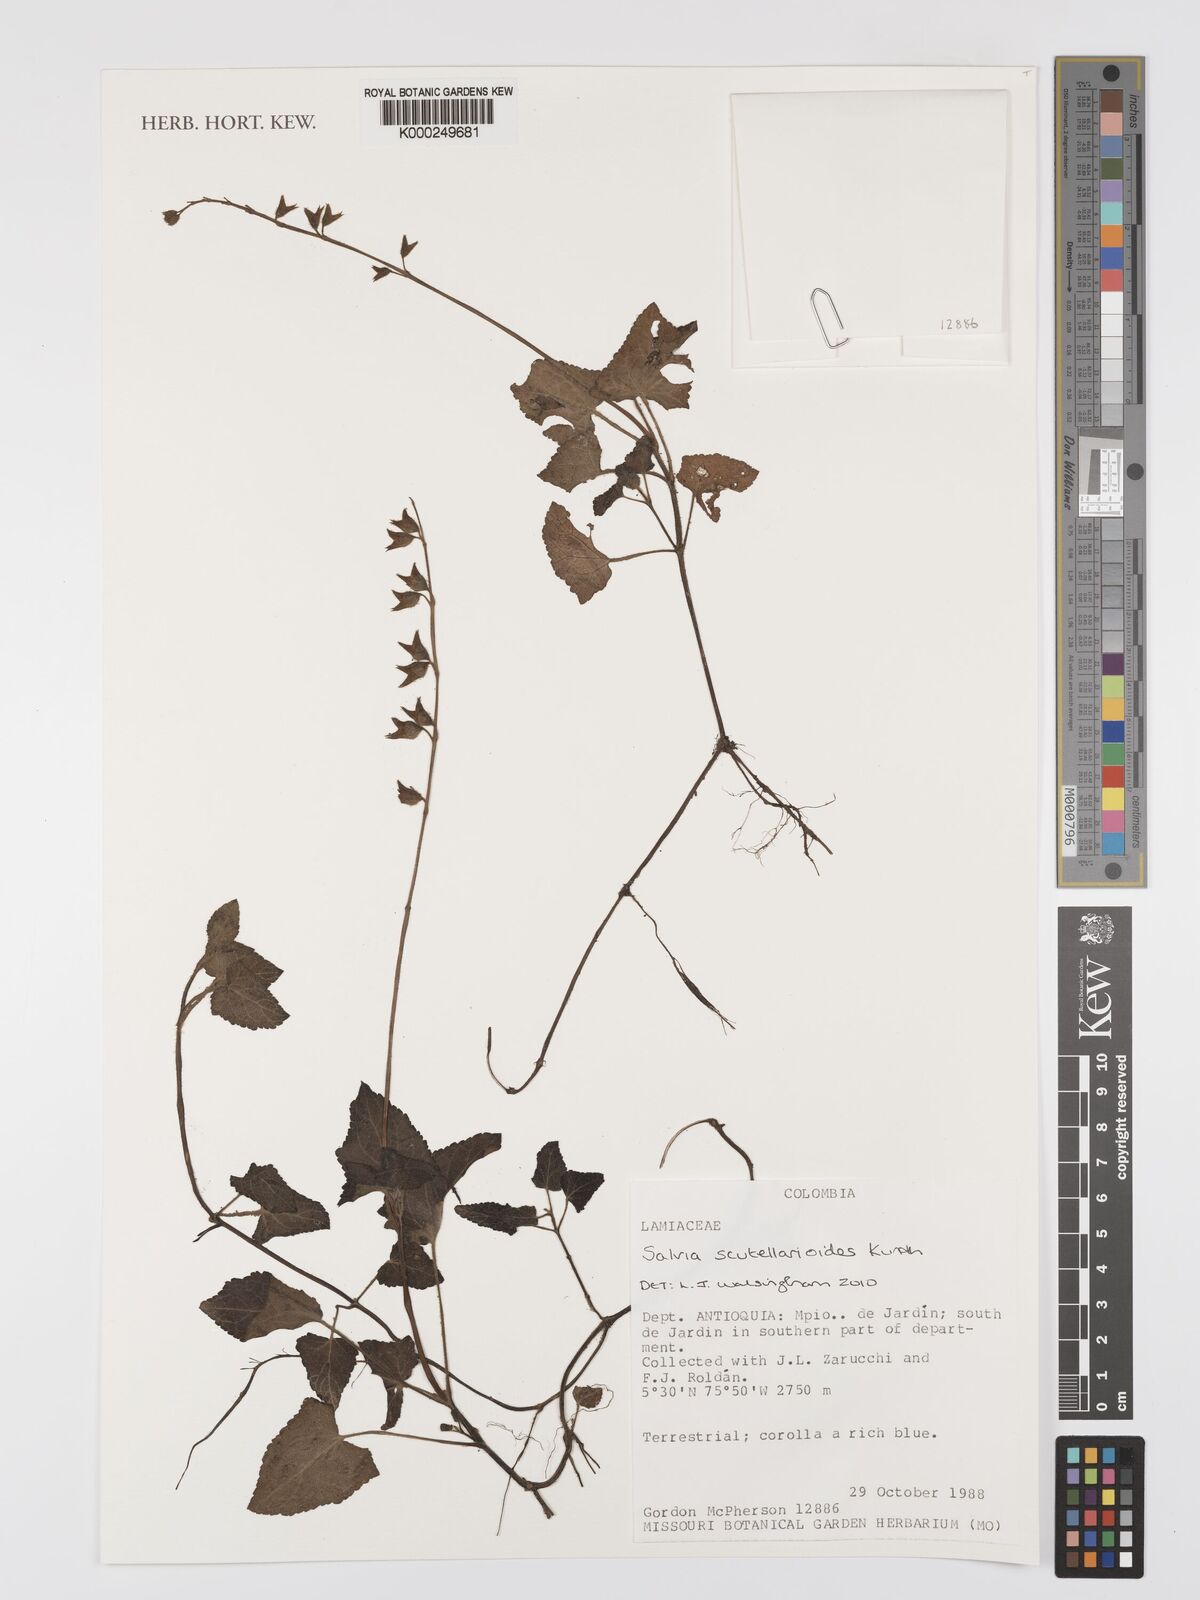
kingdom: Plantae
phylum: Tracheophyta
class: Magnoliopsida
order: Lamiales
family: Lamiaceae
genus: Salvia
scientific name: Salvia scutellarioides
